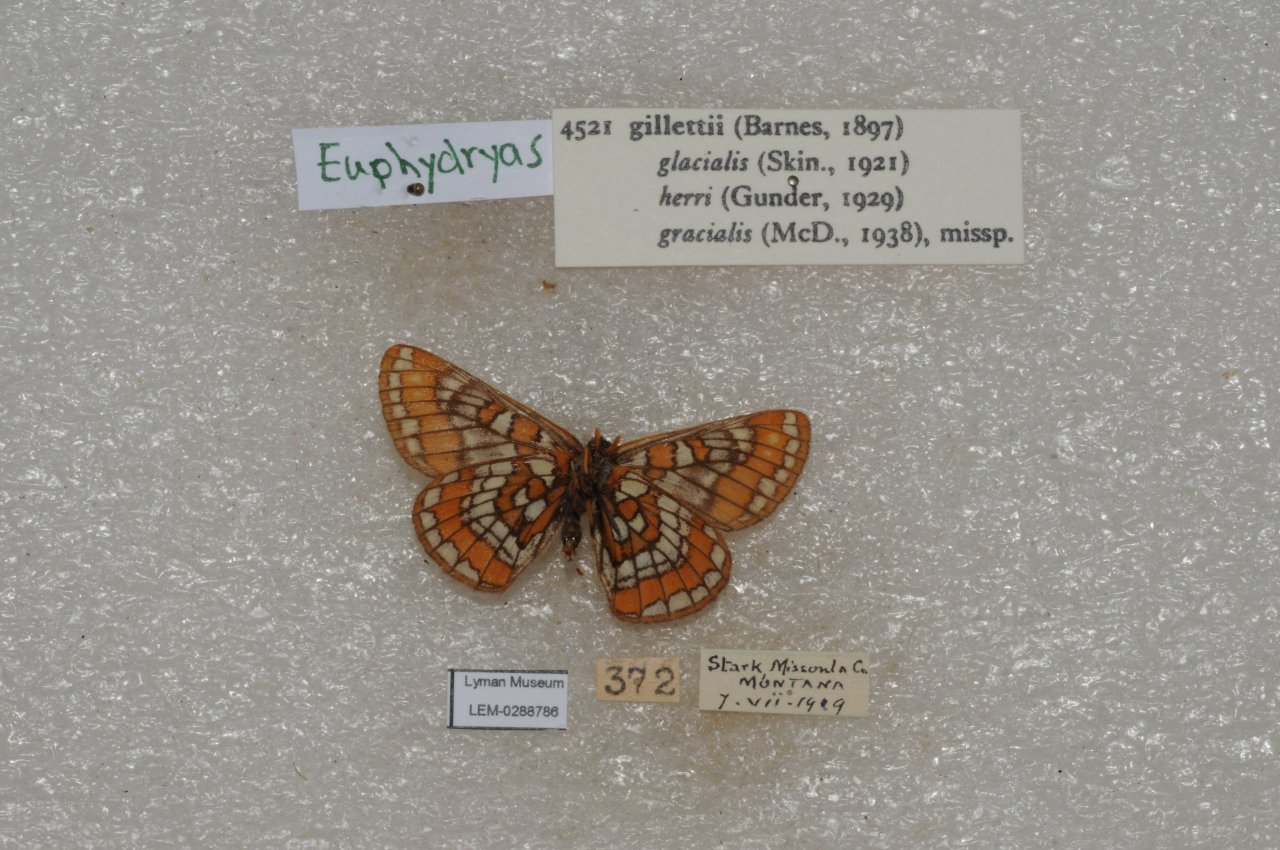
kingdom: Animalia
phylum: Arthropoda
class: Insecta
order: Lepidoptera
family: Nymphalidae
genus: Hypodryas
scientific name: Hypodryas gillettii
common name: Gillette's Checkerspot
